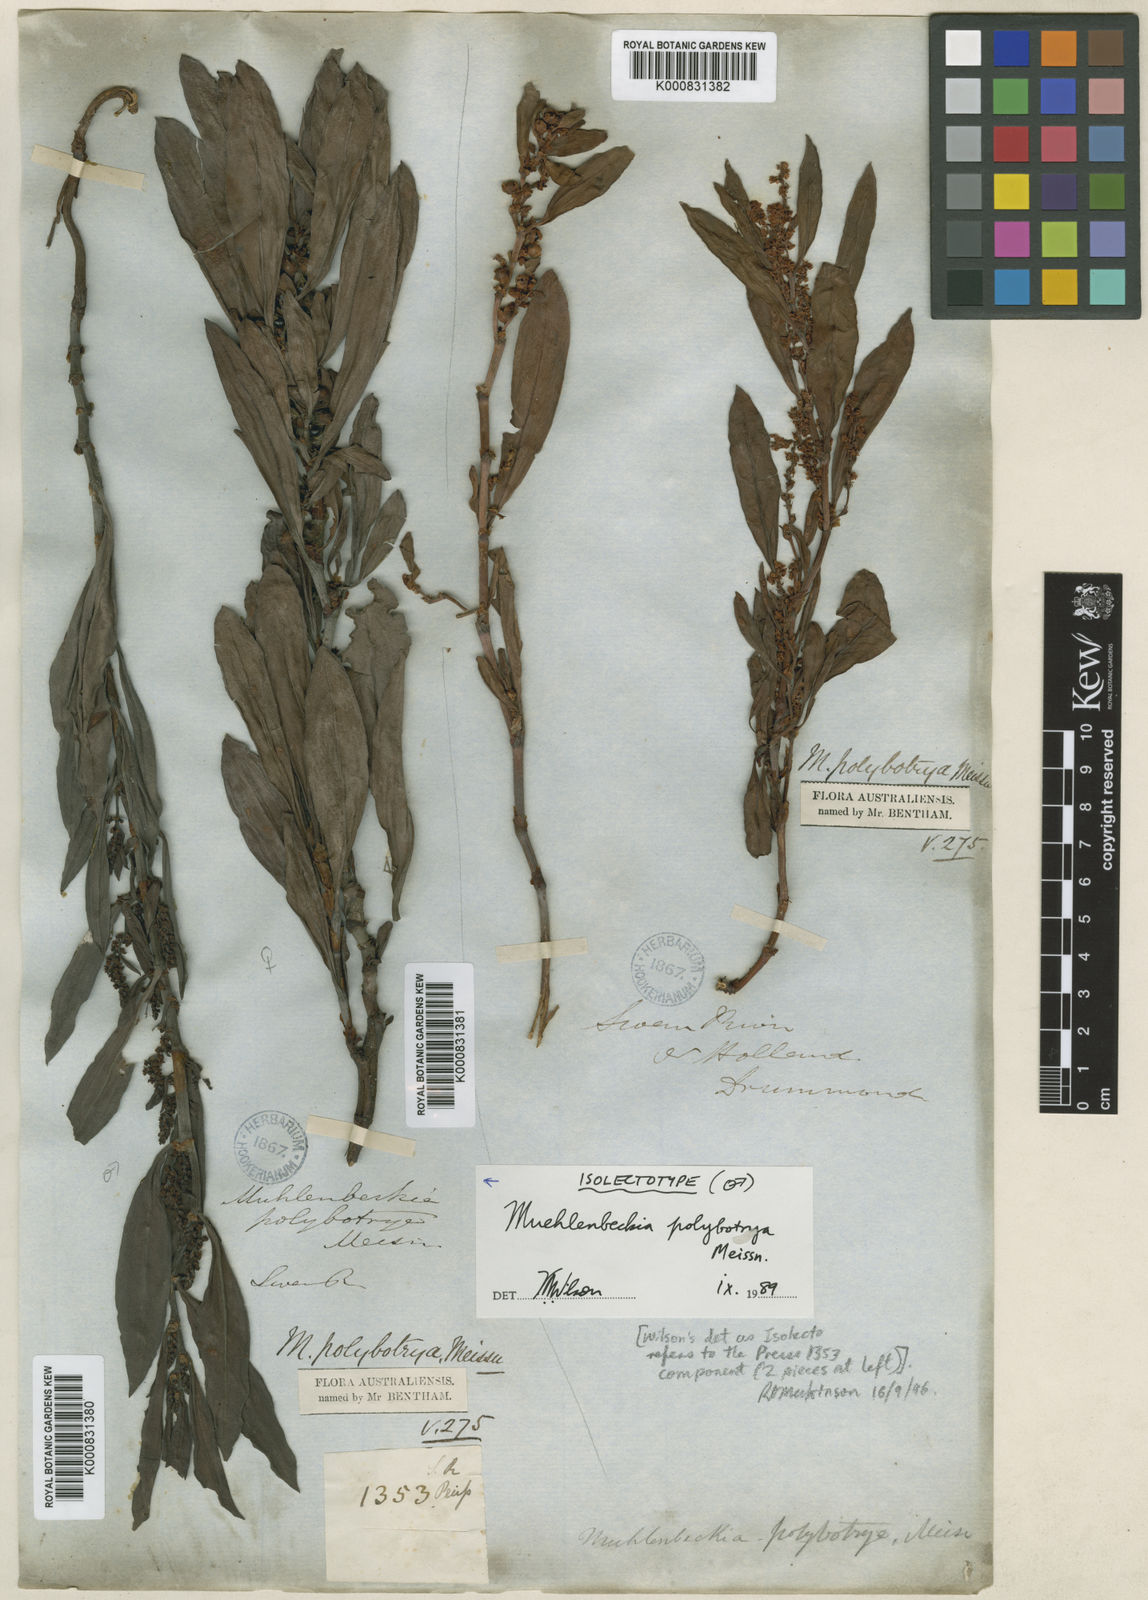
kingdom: Plantae
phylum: Tracheophyta
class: Magnoliopsida
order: Caryophyllales
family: Polygonaceae
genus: Muehlenbeckia
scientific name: Muehlenbeckia polybotrya
